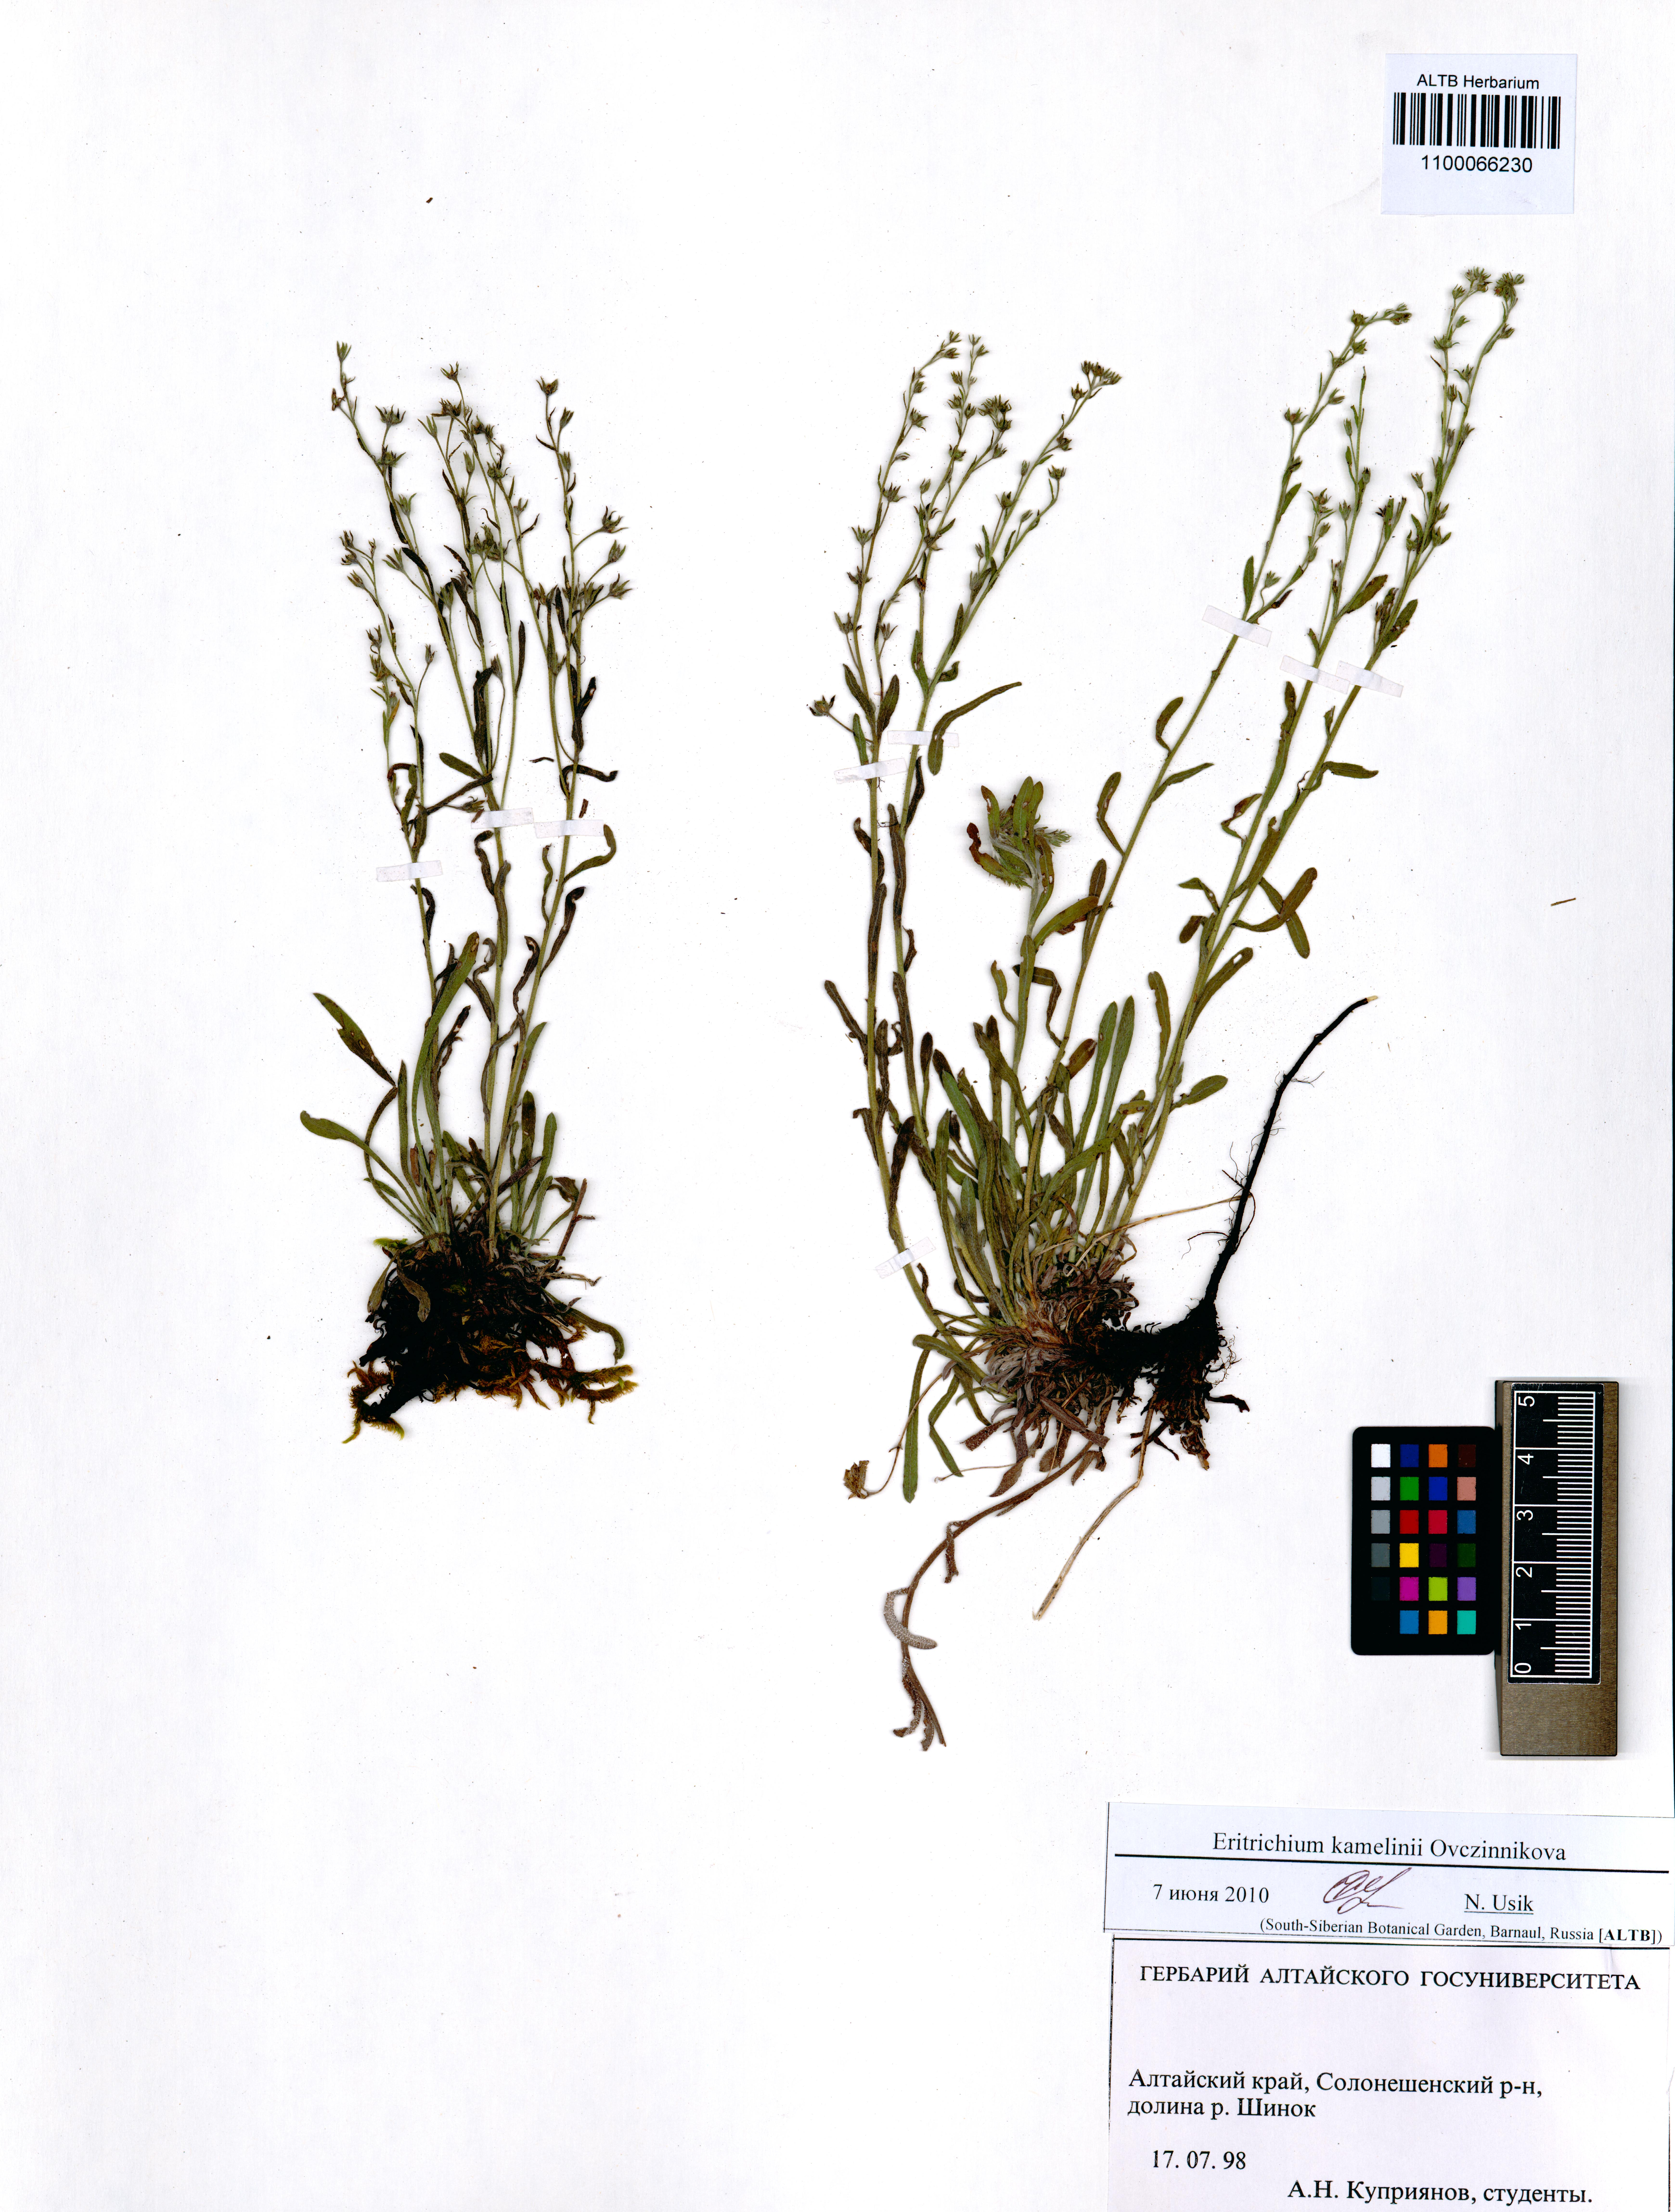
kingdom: Plantae
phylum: Tracheophyta
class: Magnoliopsida
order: Boraginales
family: Boraginaceae
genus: Eritrichium
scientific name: Eritrichium kamelinii
